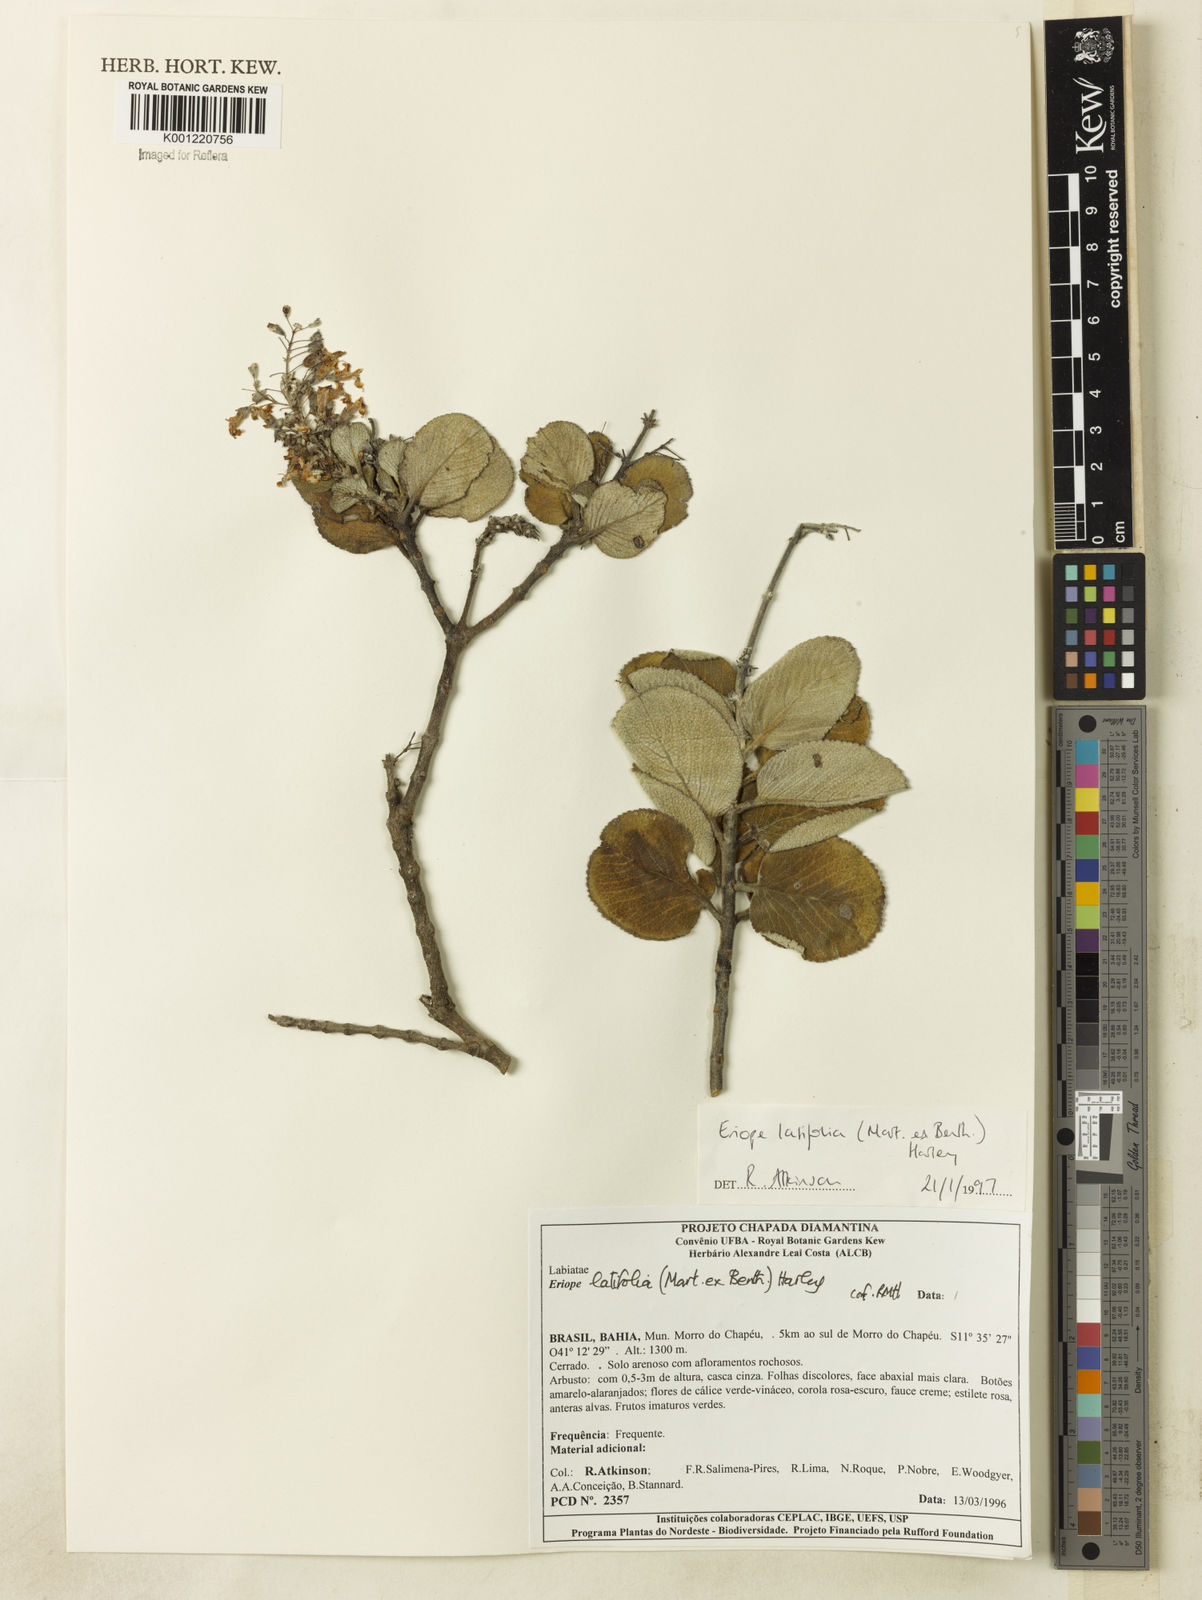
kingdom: Plantae
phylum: Tracheophyta
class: Magnoliopsida
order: Lamiales
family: Lamiaceae
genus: Eriope
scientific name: Eriope latifolia
